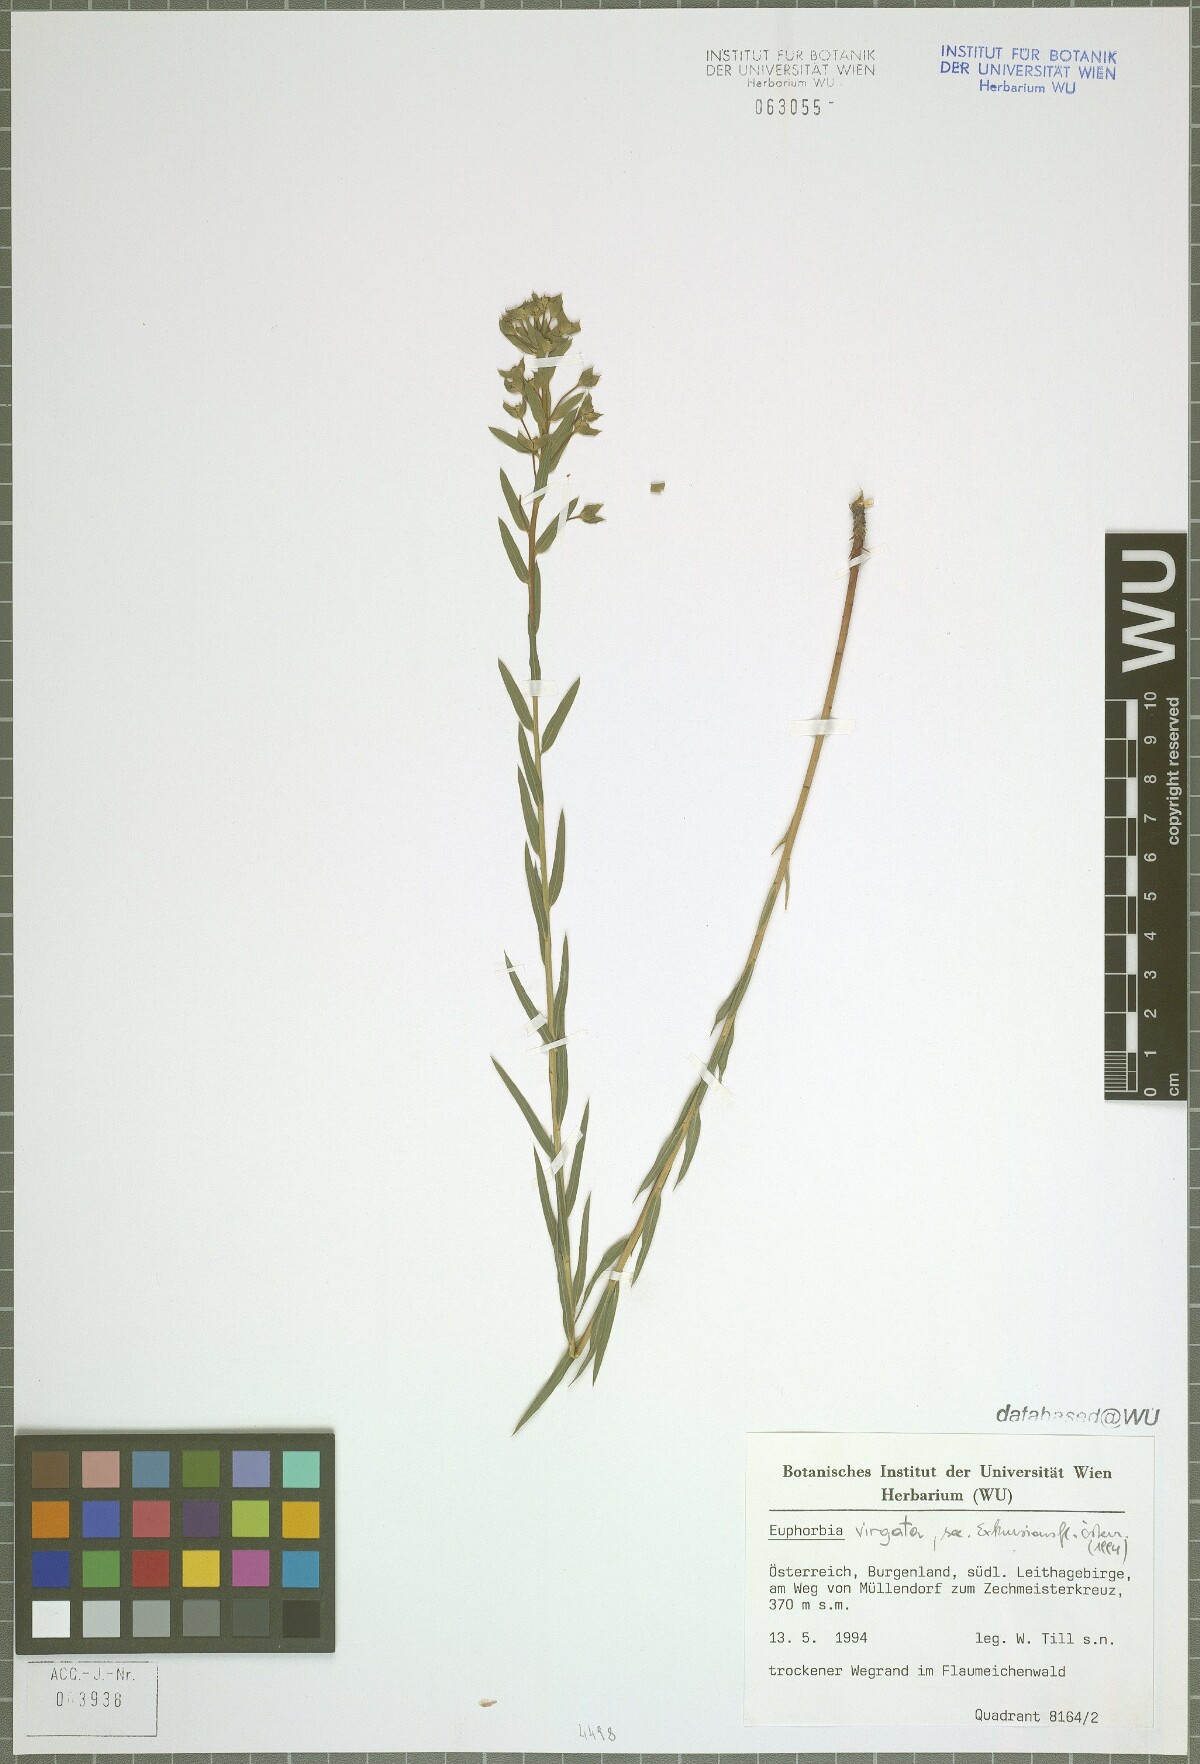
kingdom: Plantae
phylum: Tracheophyta
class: Magnoliopsida
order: Malpighiales
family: Euphorbiaceae
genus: Euphorbia
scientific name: Euphorbia virgata
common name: Leafy spurge
